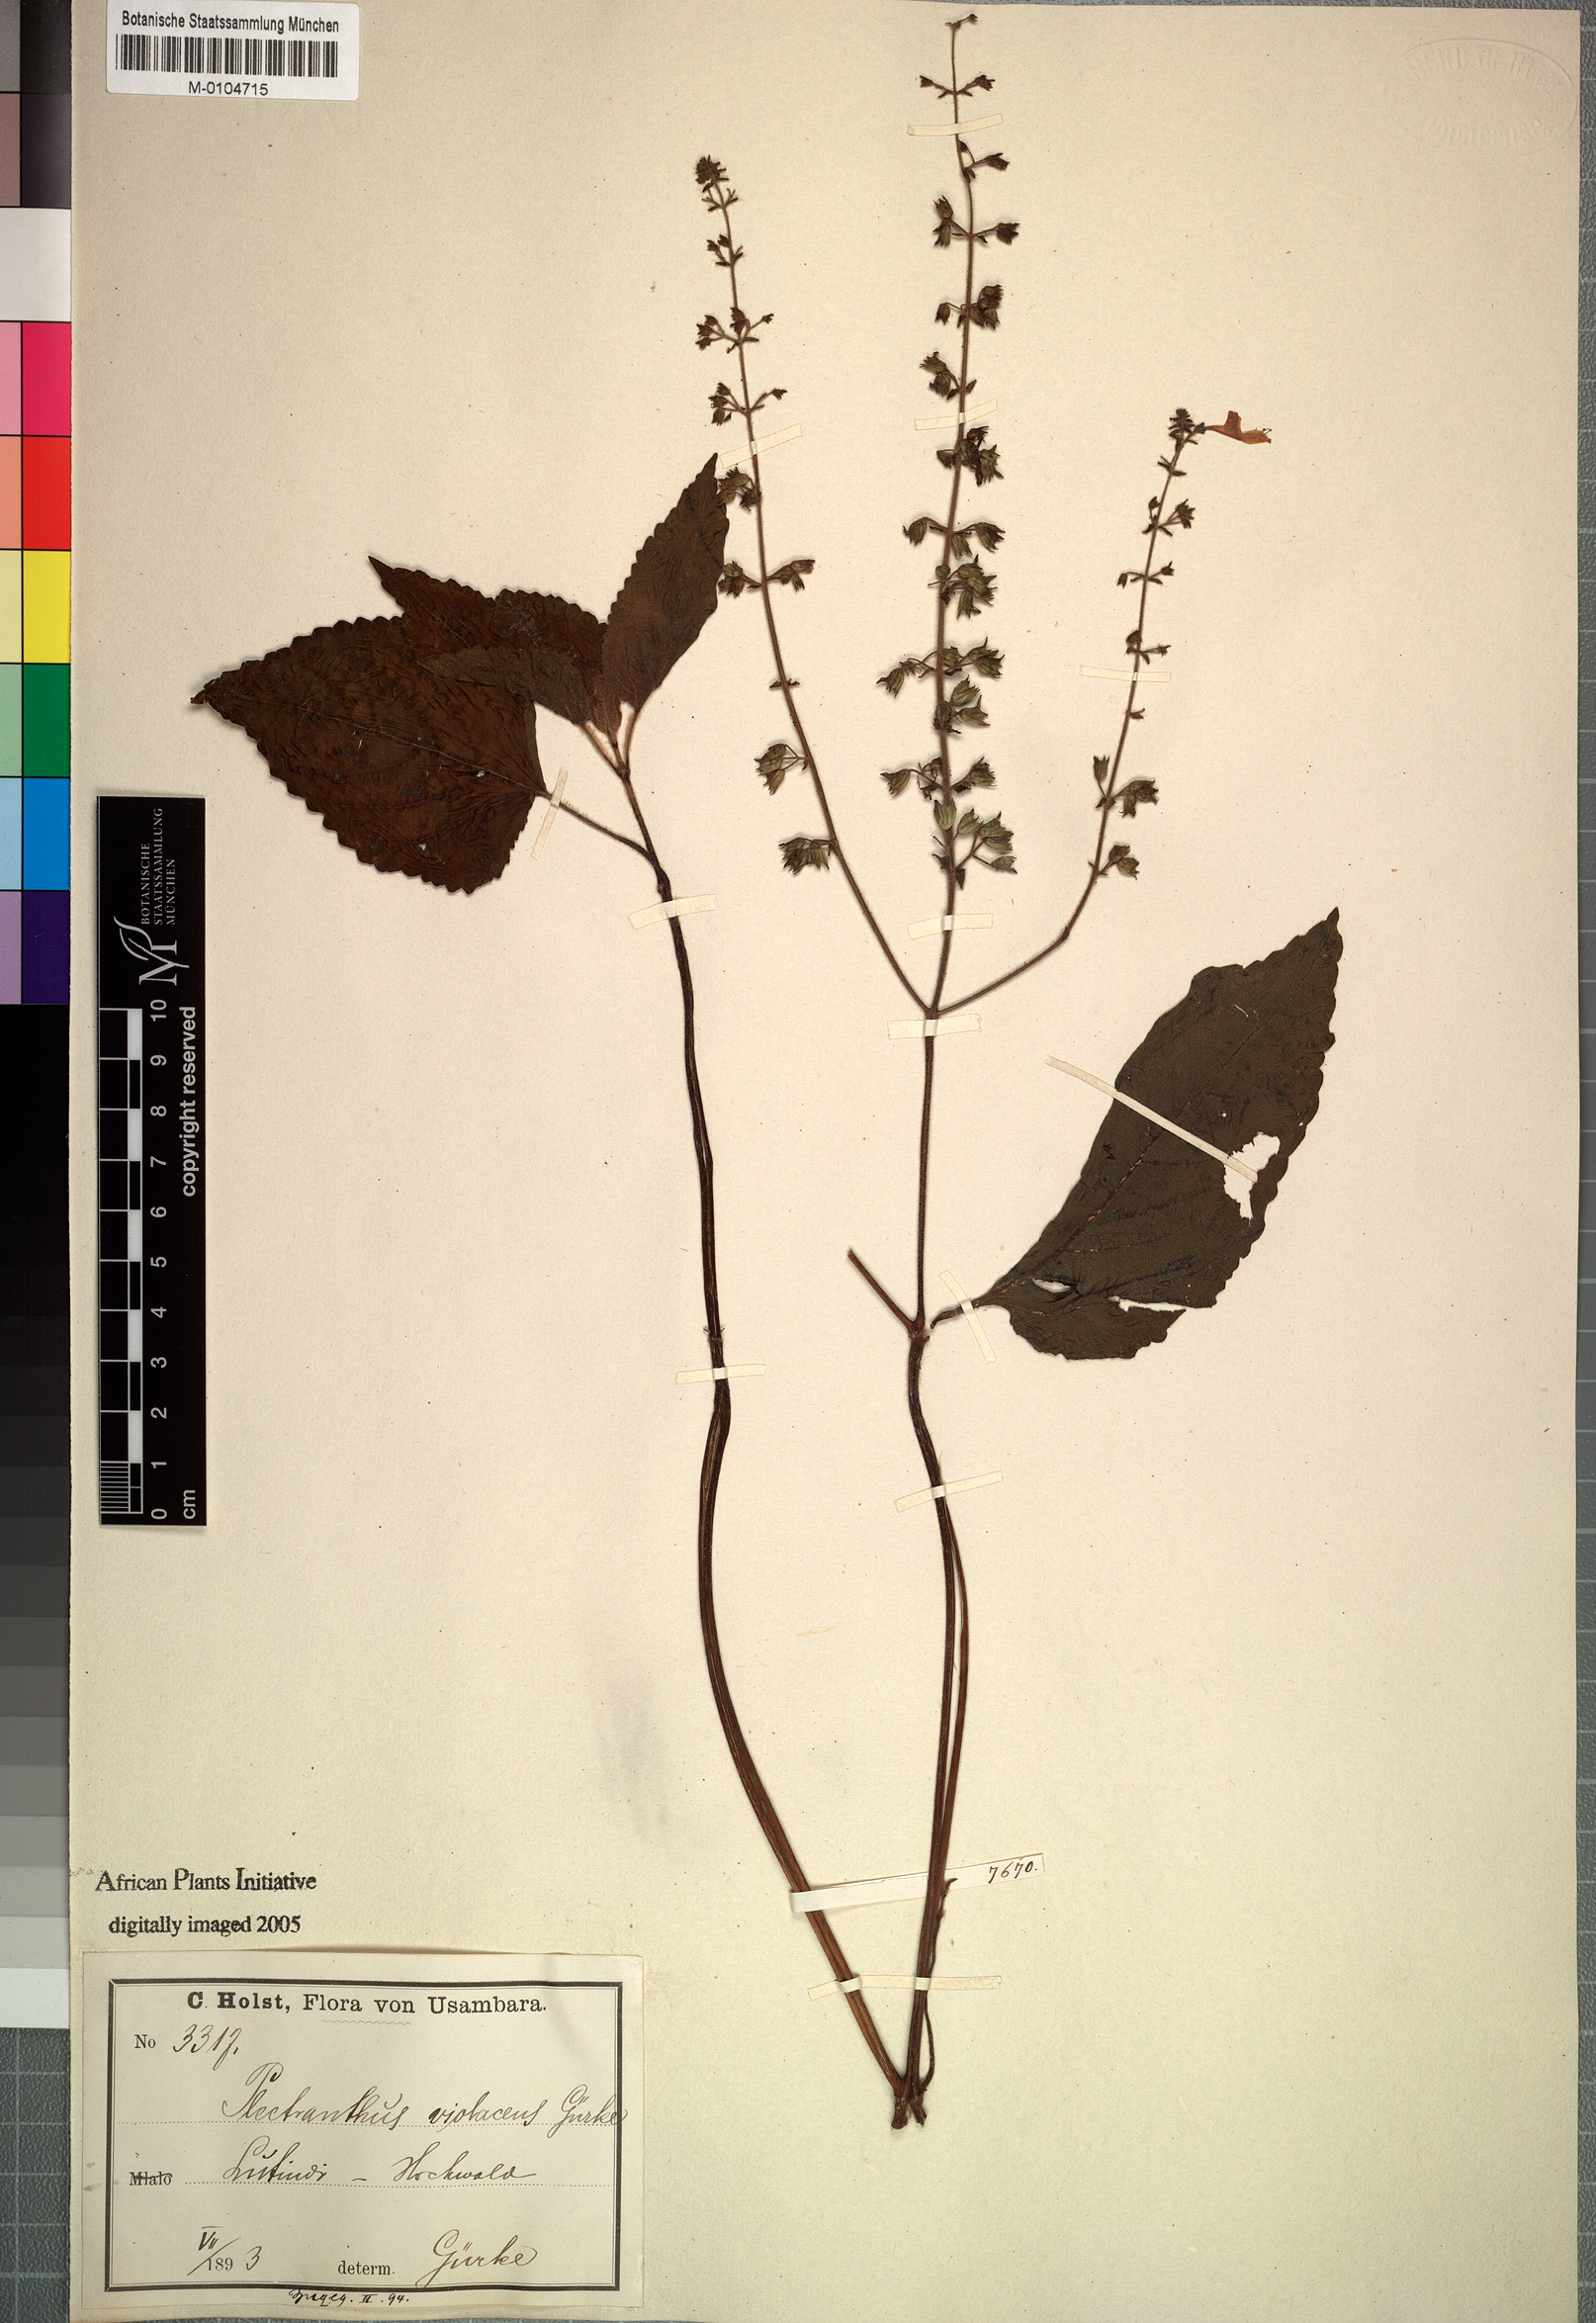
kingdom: Plantae
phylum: Tracheophyta
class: Magnoliopsida
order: Lamiales
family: Lamiaceae
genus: Equilabium
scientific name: Equilabium laxiflorum
